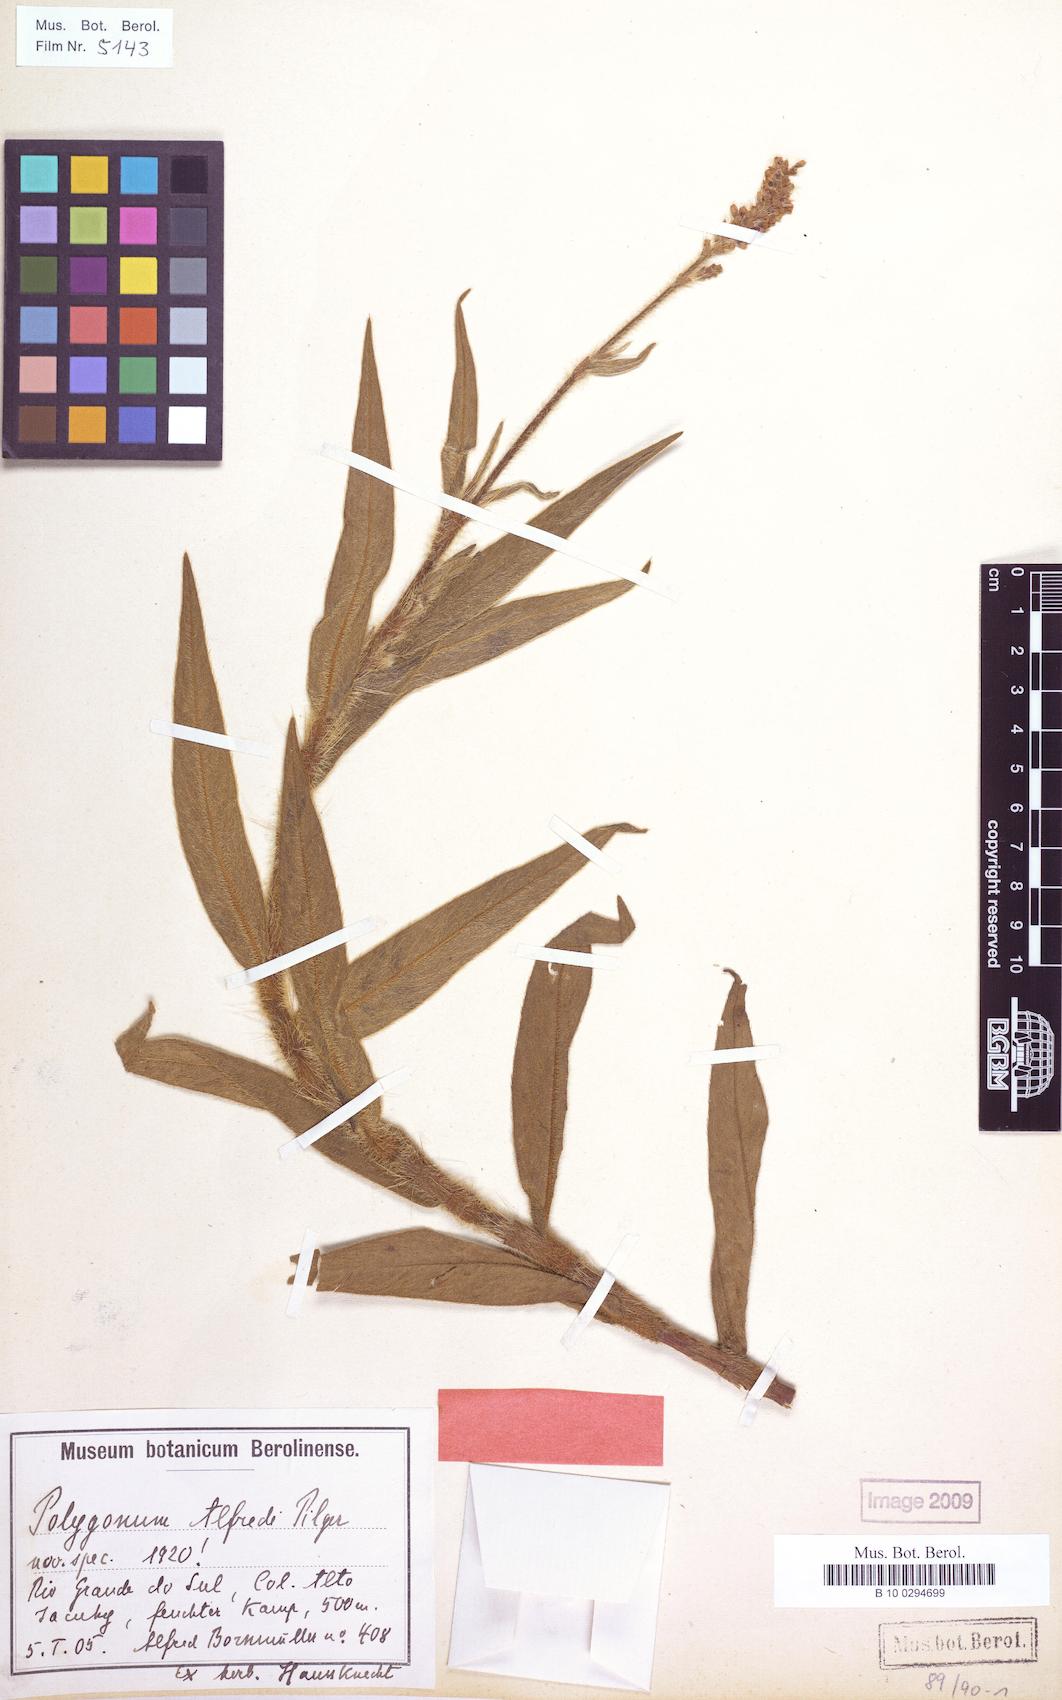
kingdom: Plantae
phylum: Tracheophyta
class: Magnoliopsida
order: Caryophyllales
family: Polygonaceae
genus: Persicaria
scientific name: Persicaria acuminata
